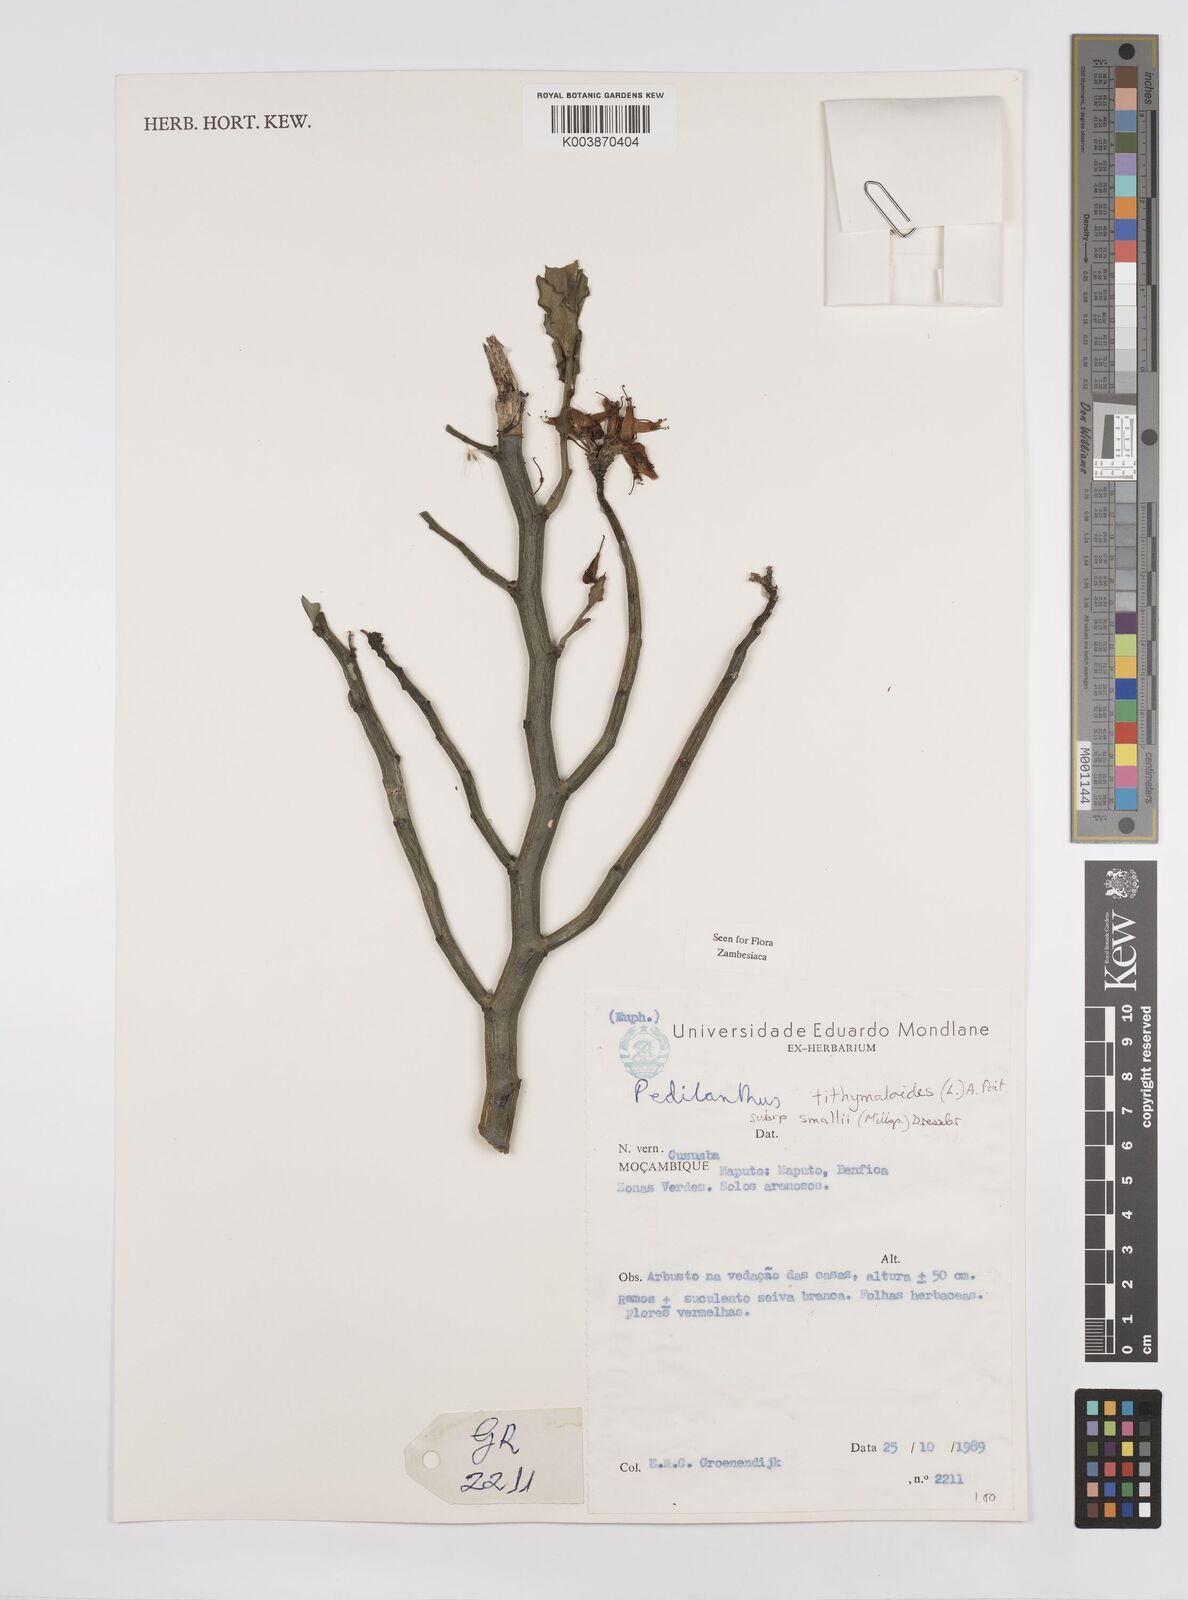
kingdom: Plantae
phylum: Tracheophyta
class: Magnoliopsida
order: Malpighiales
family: Euphorbiaceae
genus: Euphorbia
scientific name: Euphorbia tithymaloides
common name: Slipperplant
